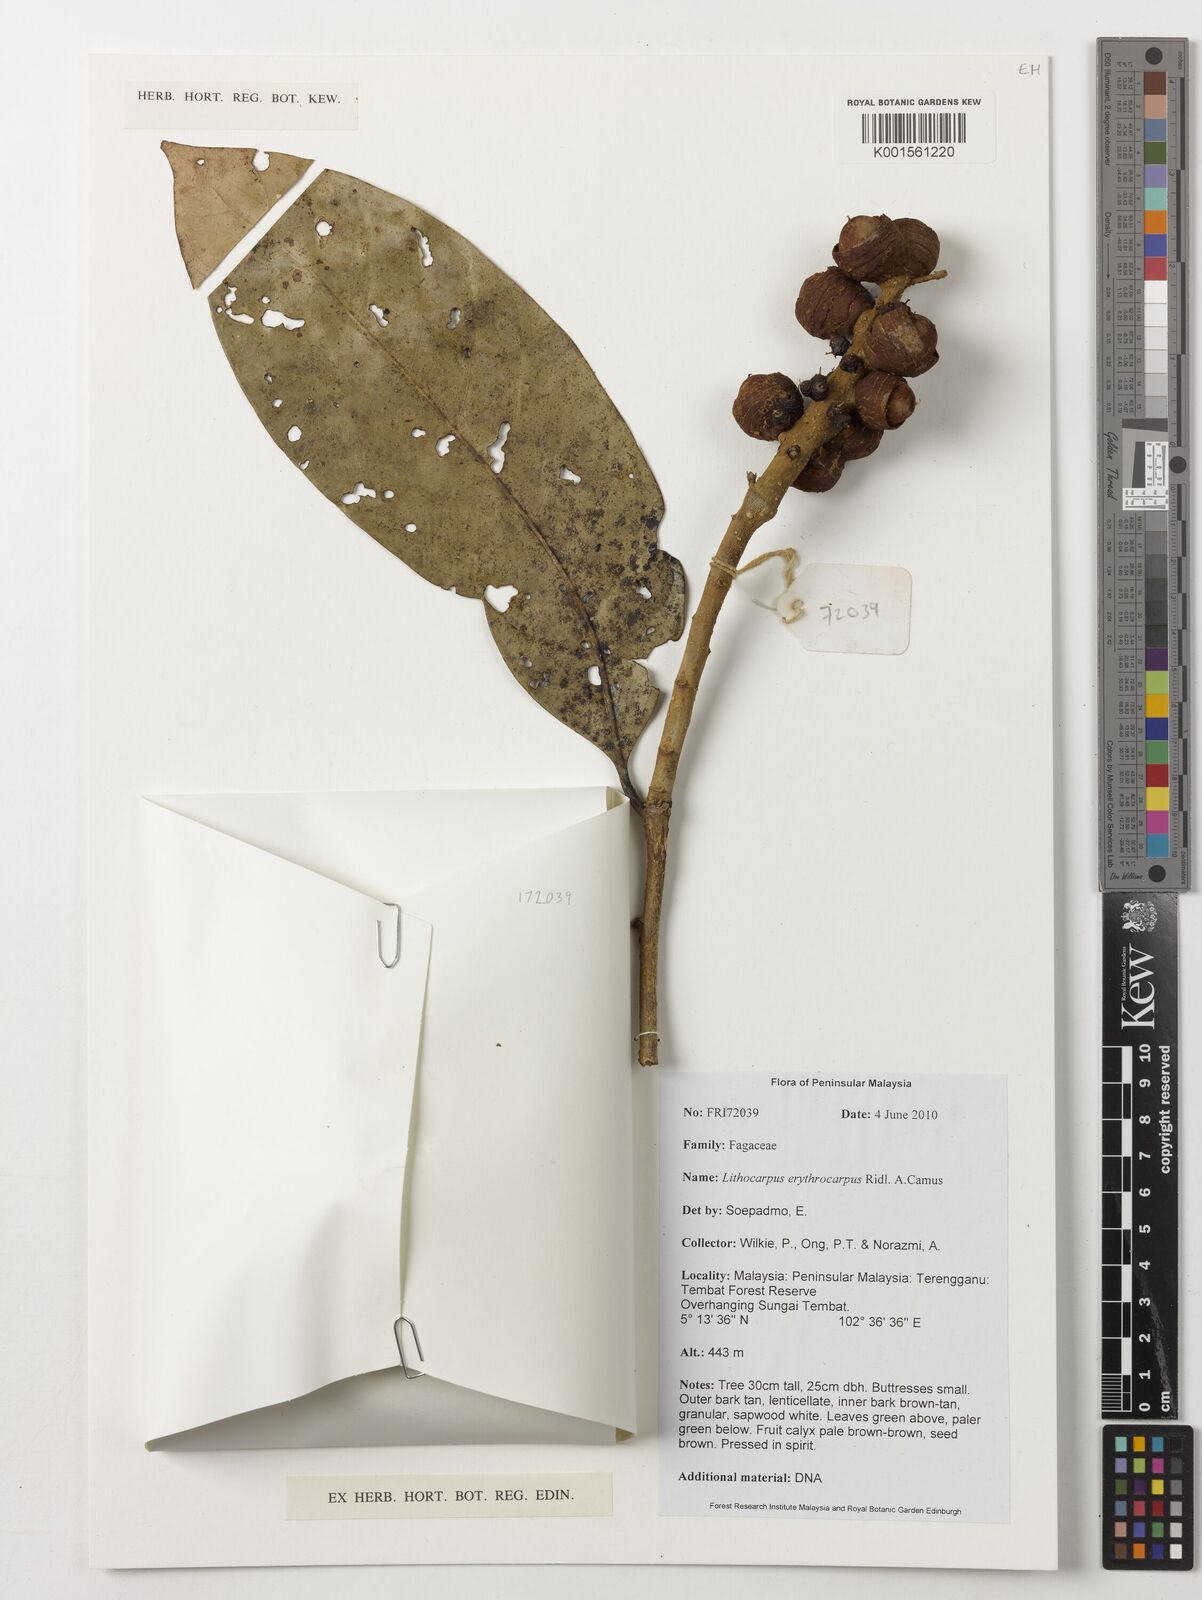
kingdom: Plantae
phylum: Tracheophyta
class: Magnoliopsida
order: Fagales
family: Fagaceae
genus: Lithocarpus
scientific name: Lithocarpus erythrocarpus
